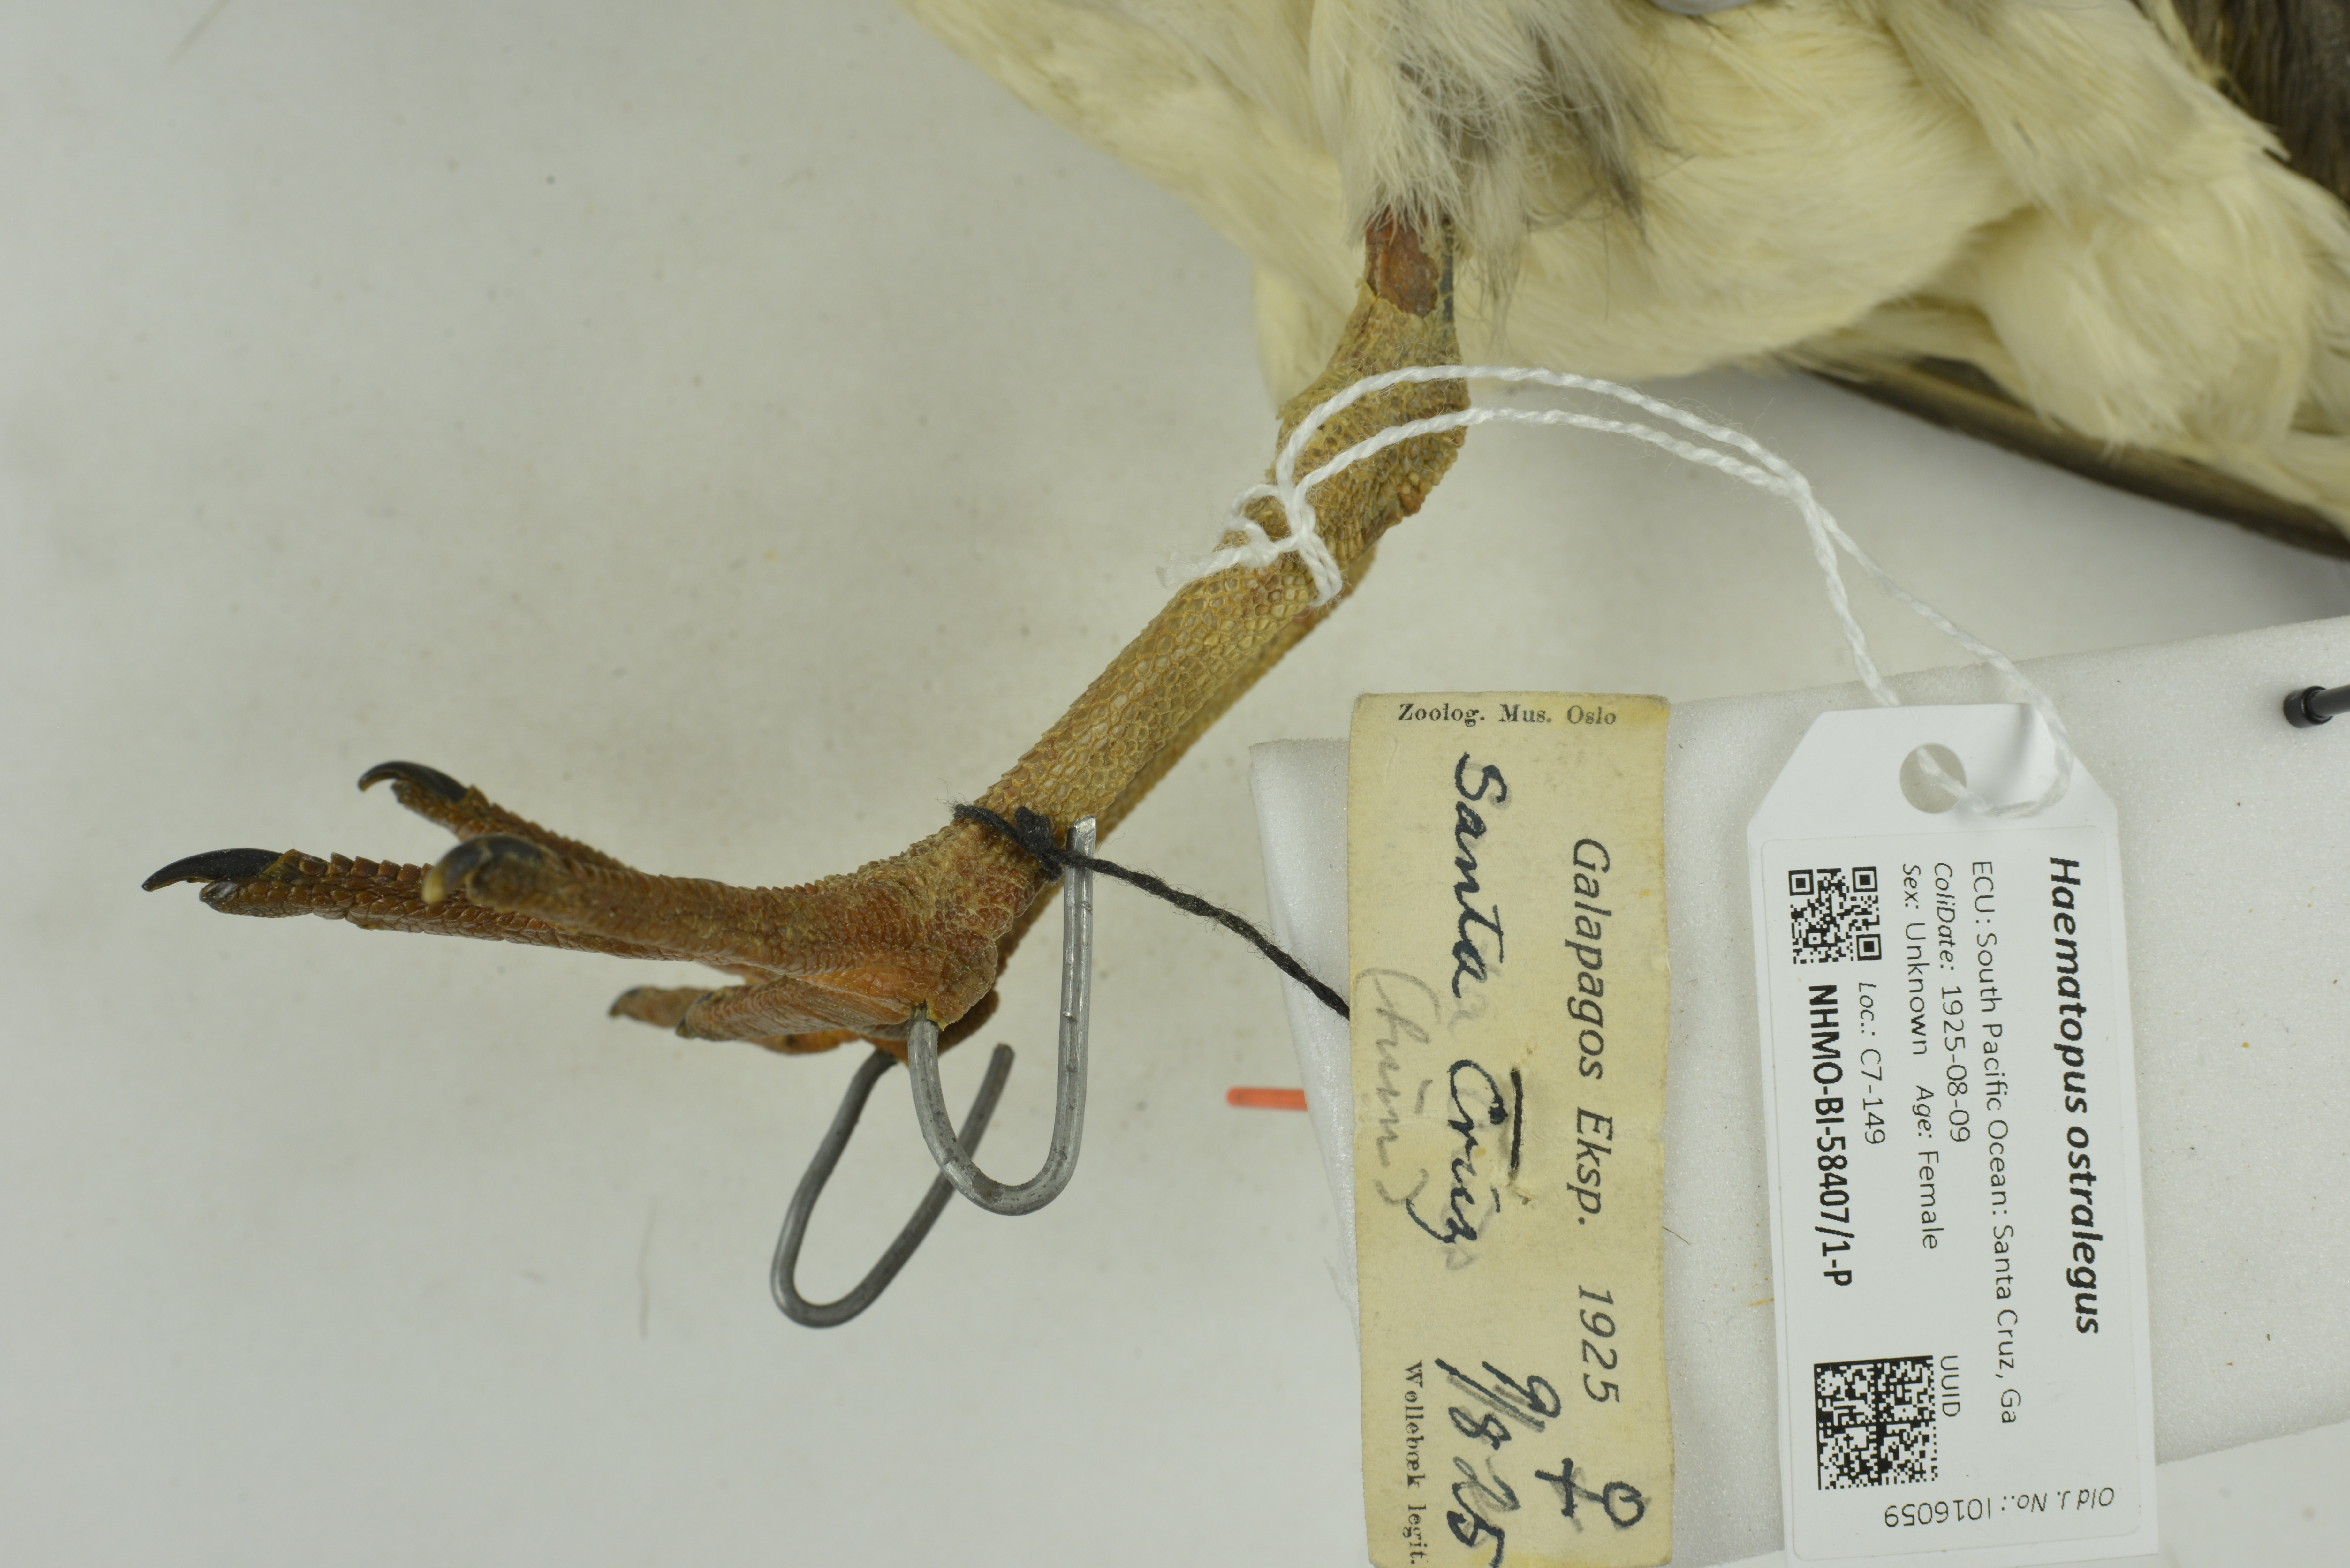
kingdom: Animalia
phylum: Chordata
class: Aves
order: Charadriiformes
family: Haematopodidae
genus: Haematopus
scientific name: Haematopus palliatus
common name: American oystercatcher
